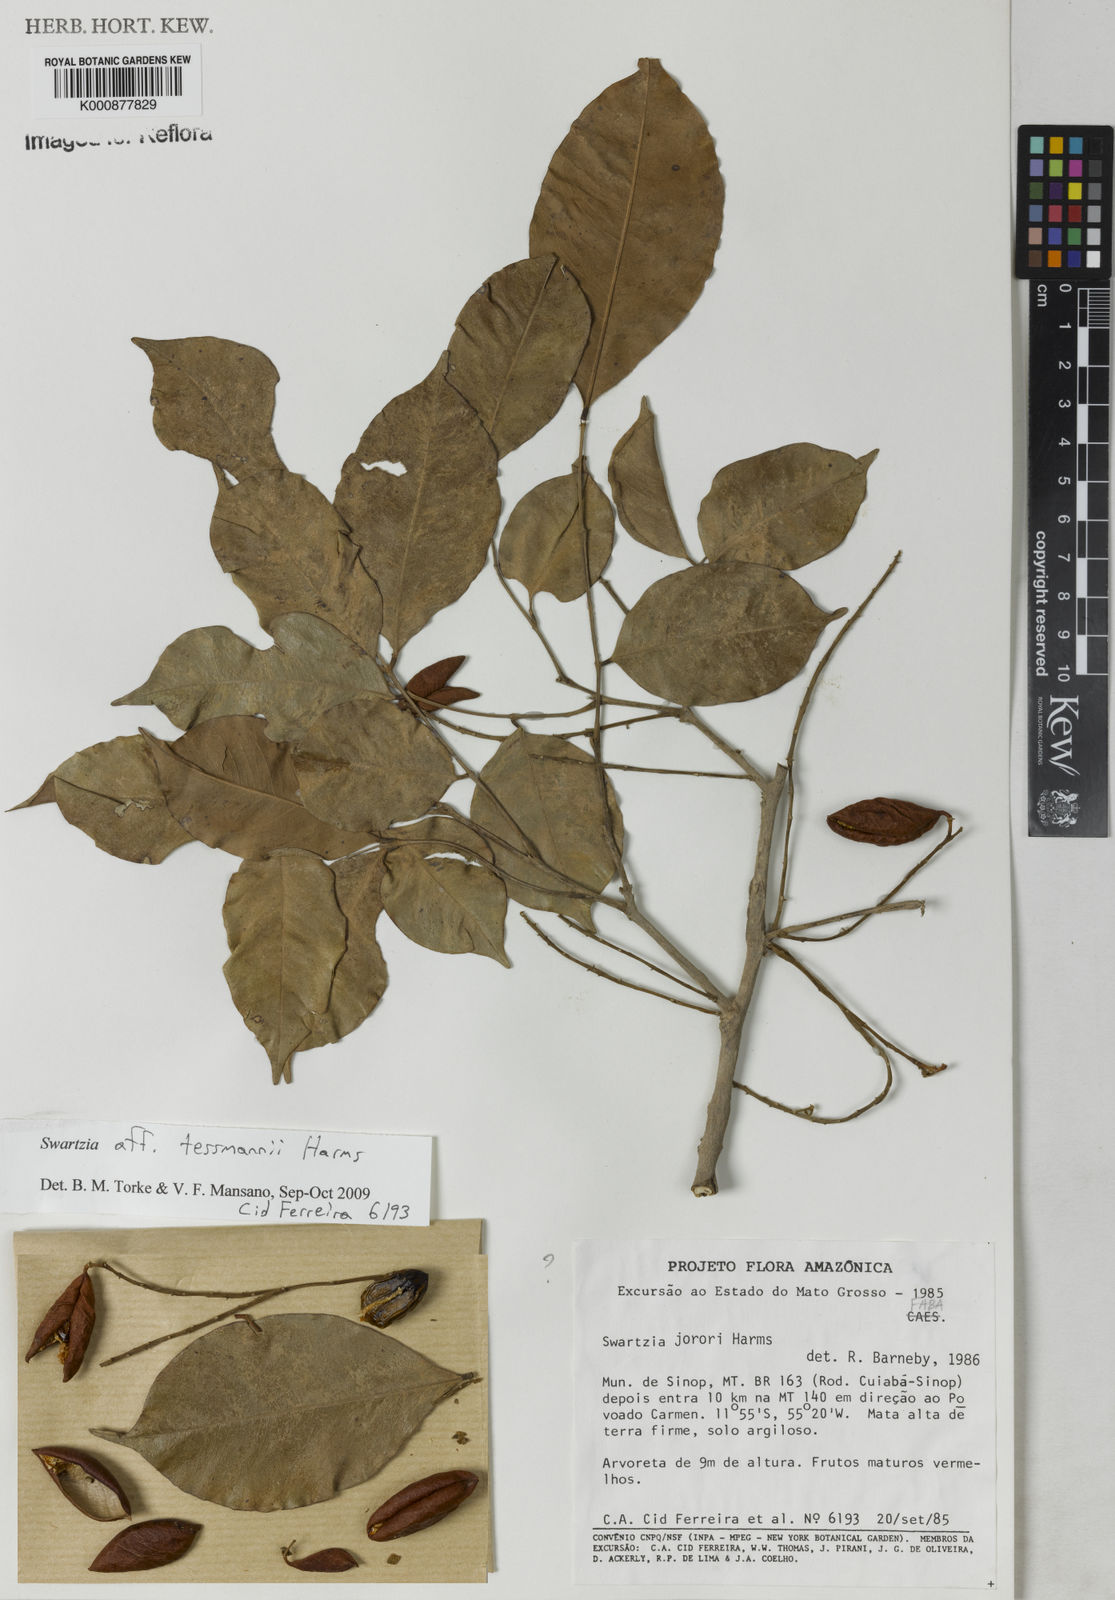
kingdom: Plantae
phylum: Tracheophyta
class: Magnoliopsida
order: Fabales
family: Fabaceae
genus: Swartzia
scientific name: Swartzia tessmannii
